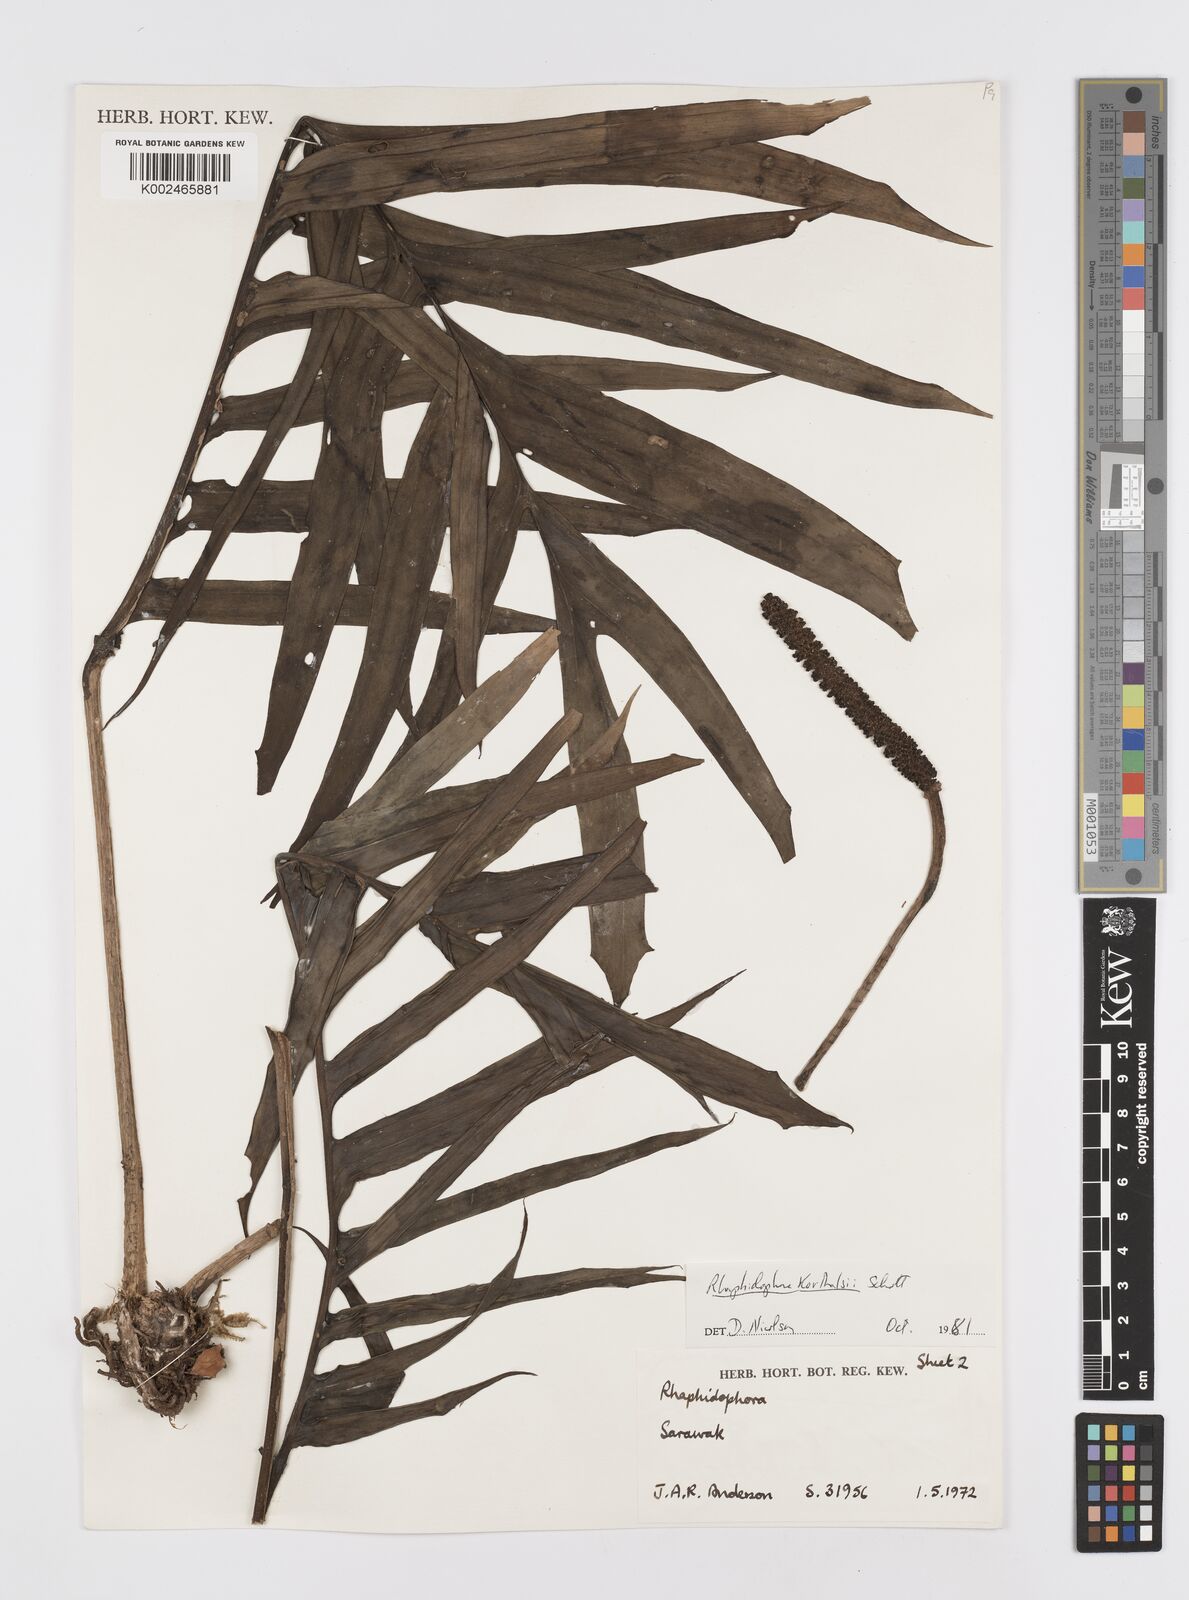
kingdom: Plantae
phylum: Tracheophyta
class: Liliopsida
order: Alismatales
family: Araceae
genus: Rhaphidophora
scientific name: Rhaphidophora korthalsii
